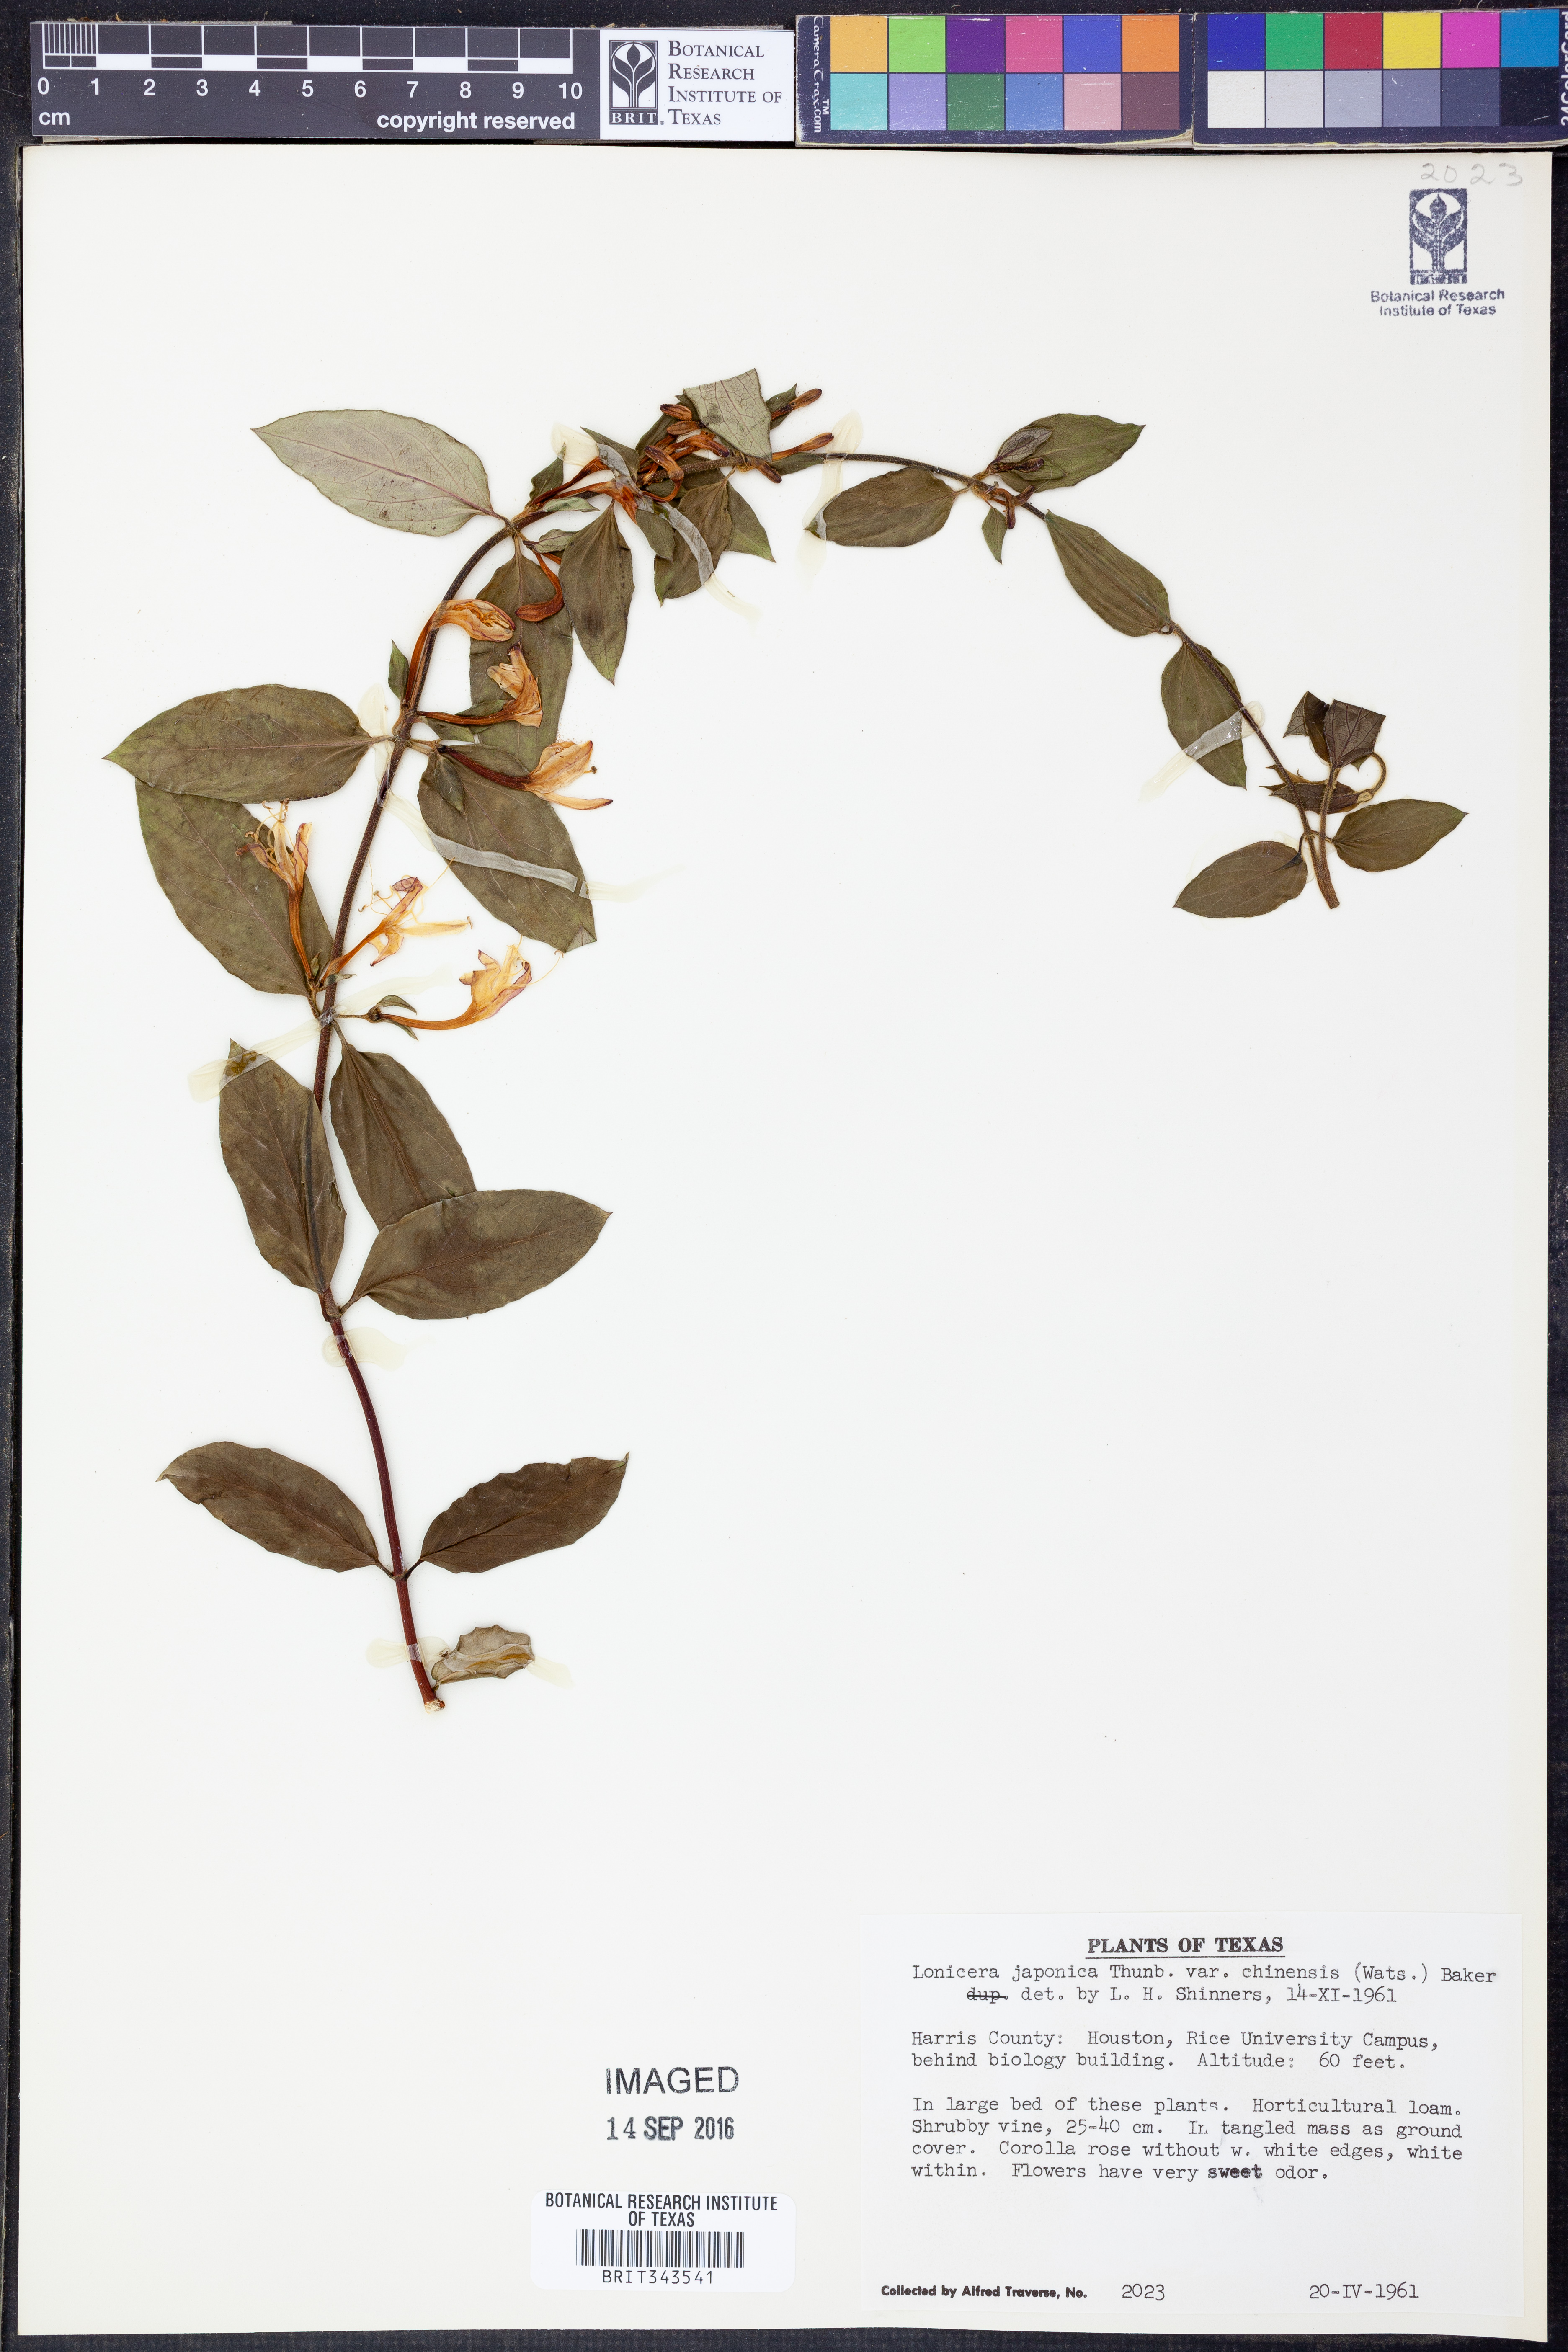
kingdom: Plantae
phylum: Tracheophyta
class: Magnoliopsida
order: Dipsacales
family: Caprifoliaceae
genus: Lonicera
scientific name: Lonicera japonica
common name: Japanese honeysuckle
